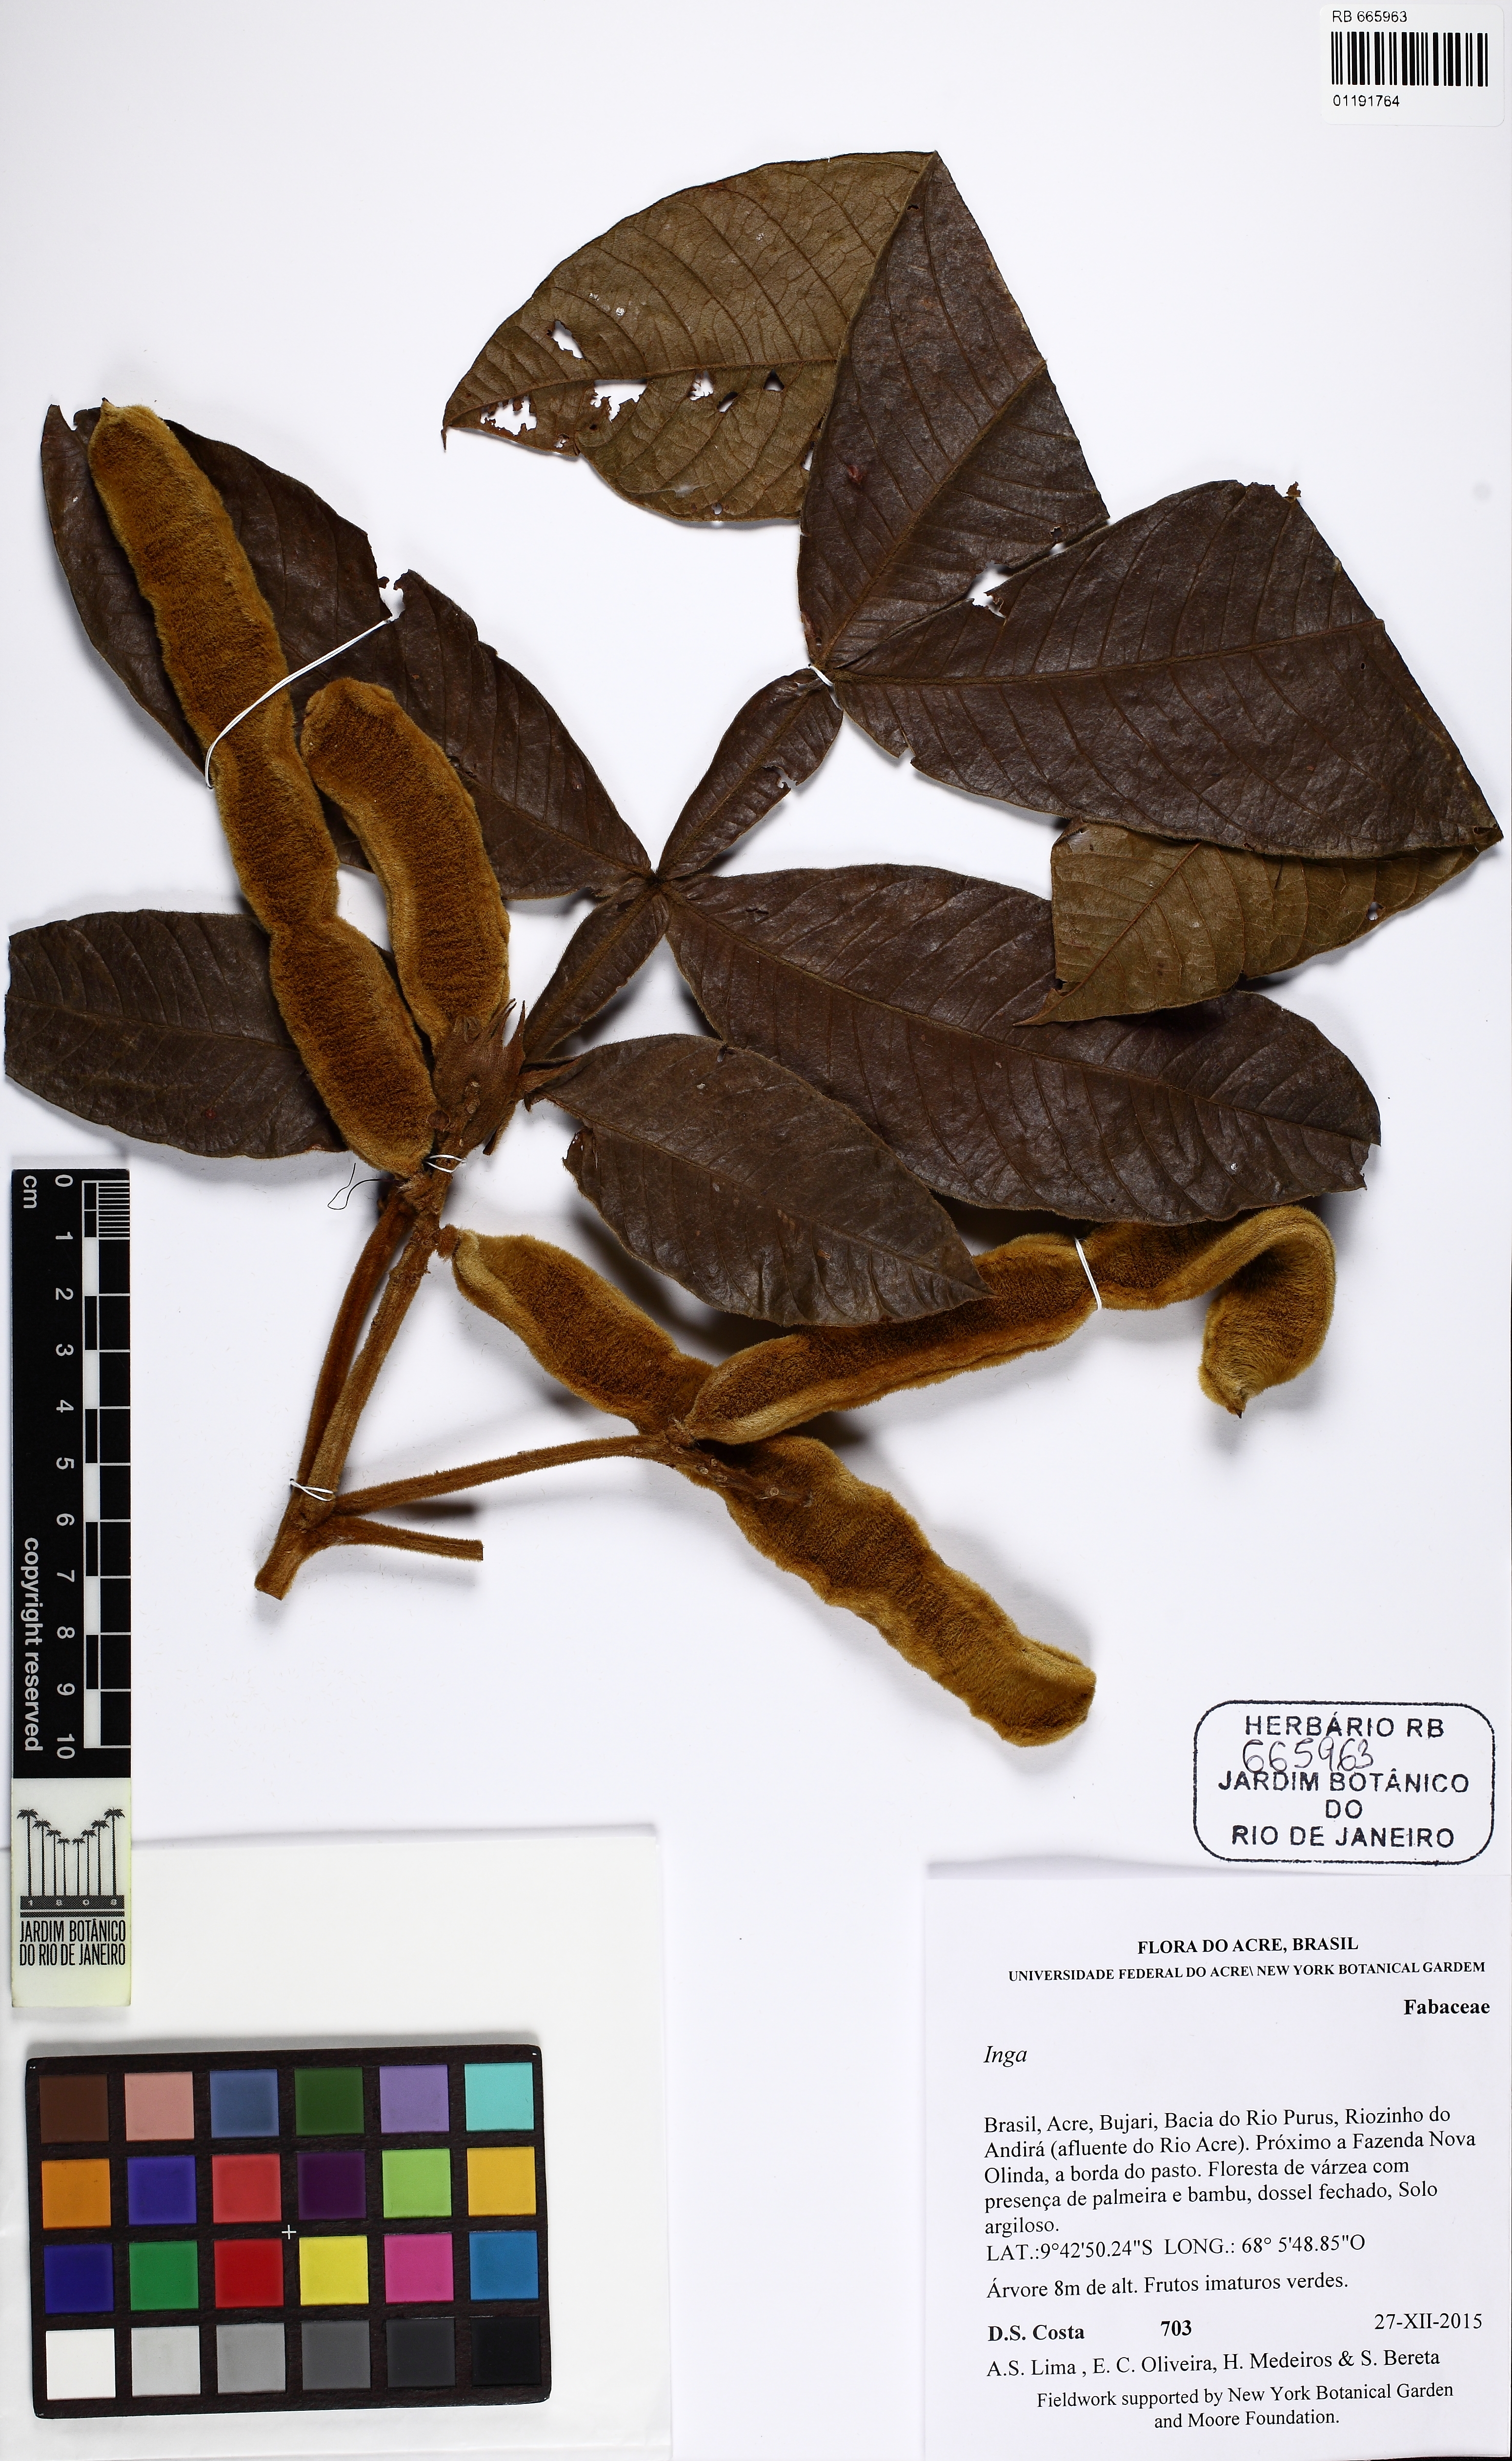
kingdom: Plantae
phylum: Tracheophyta
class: Magnoliopsida
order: Fabales
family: Fabaceae
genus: Inga
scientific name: Inga
